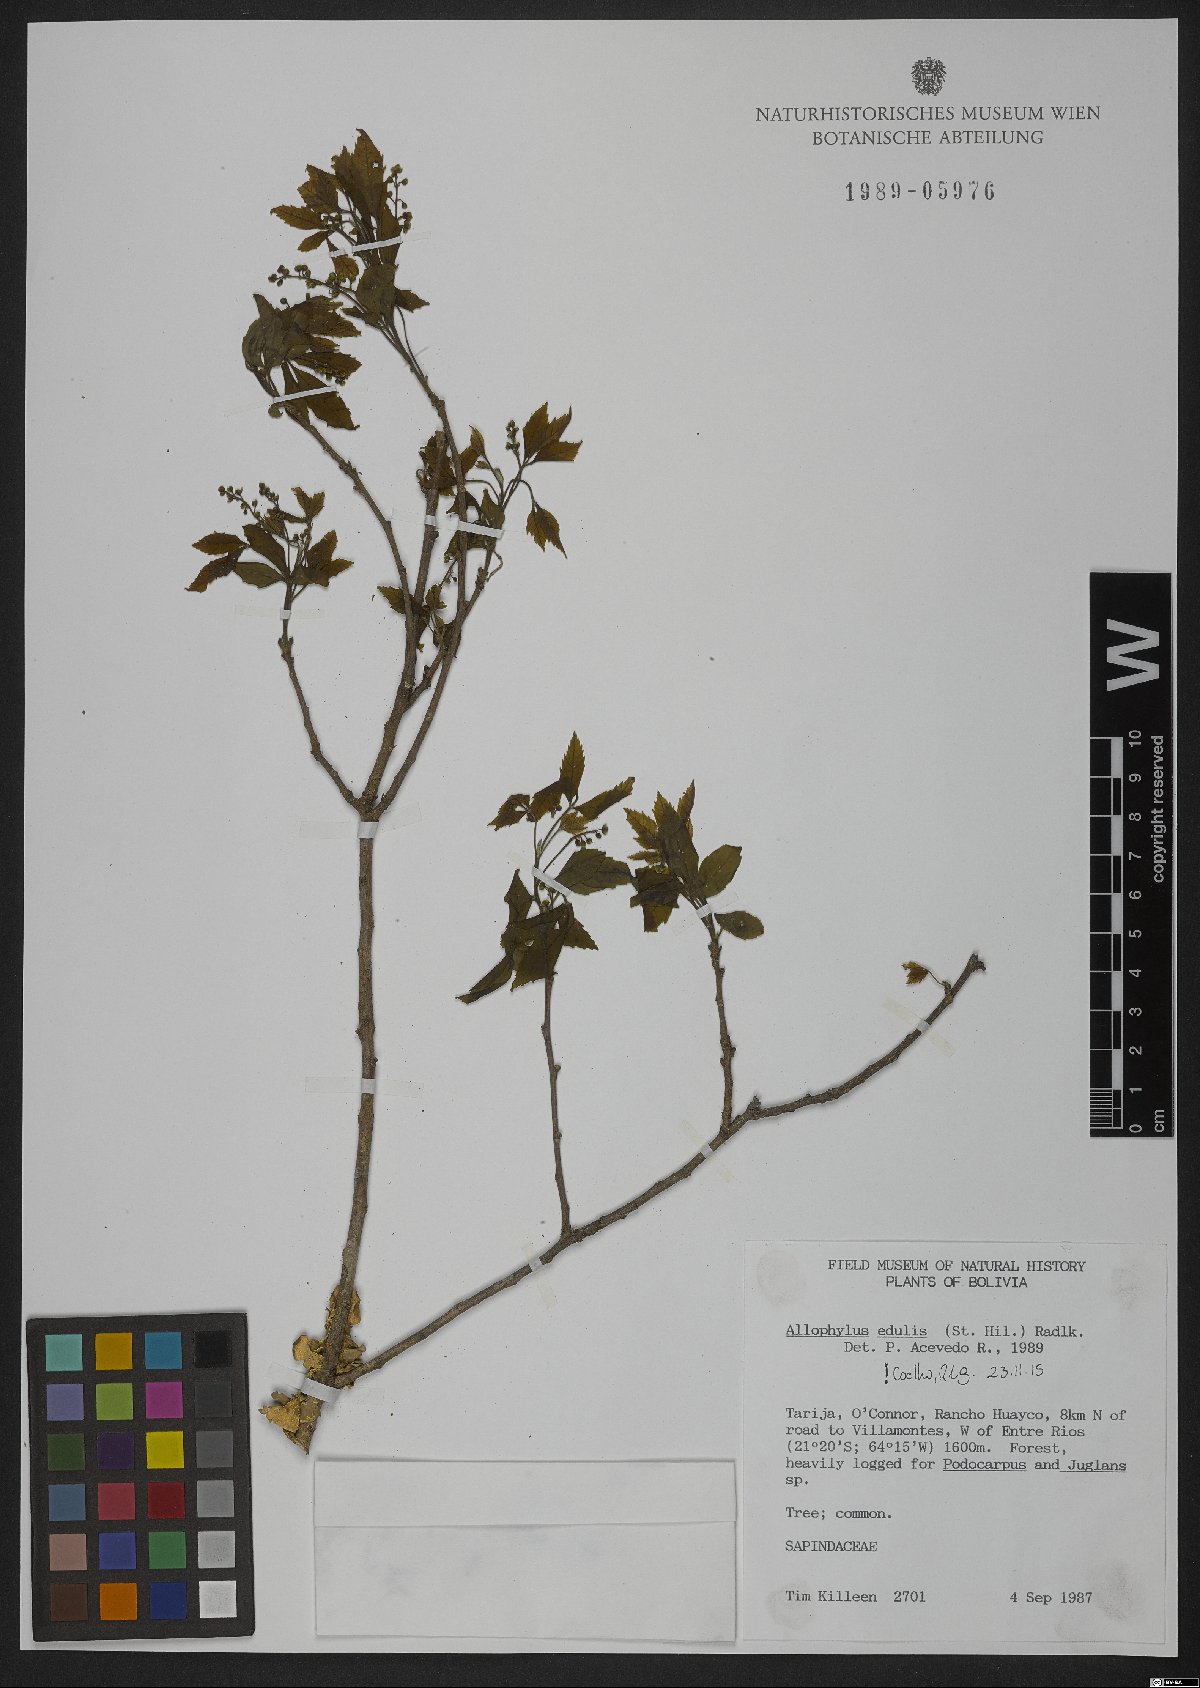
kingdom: Plantae
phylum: Tracheophyta
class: Magnoliopsida
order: Sapindales
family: Sapindaceae
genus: Allophylus
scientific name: Allophylus edulis
